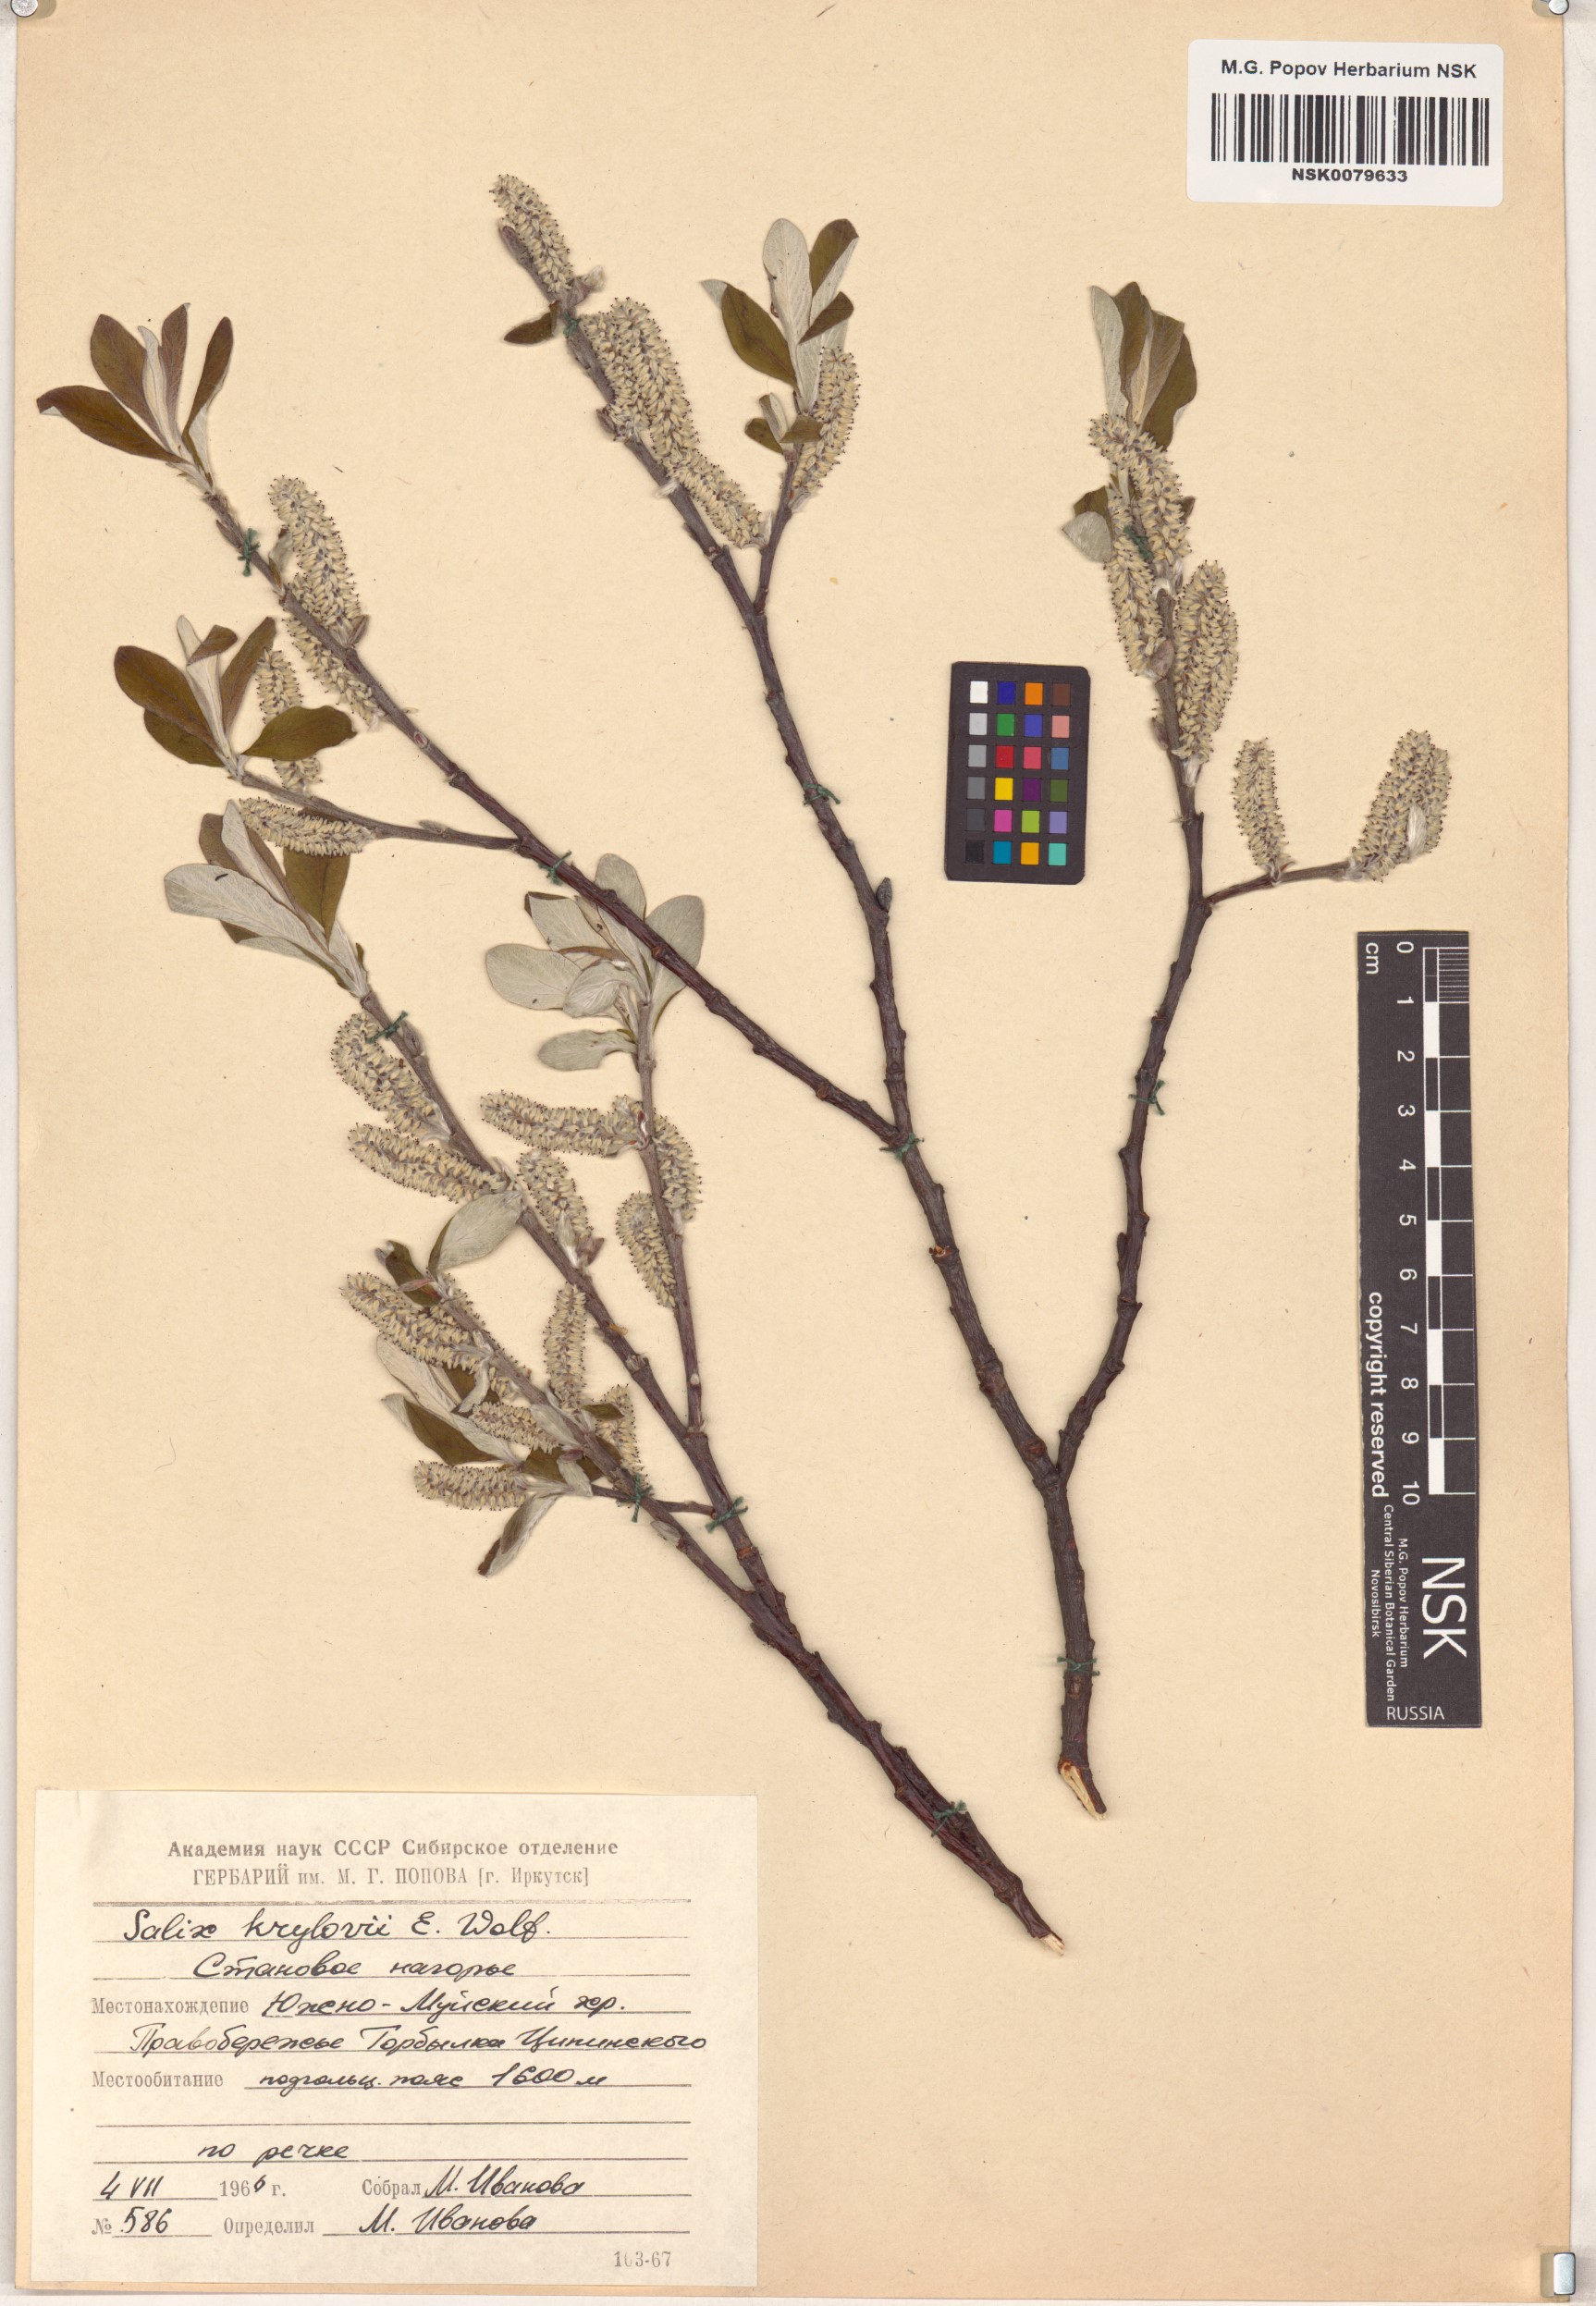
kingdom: Plantae
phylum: Tracheophyta
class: Magnoliopsida
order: Malpighiales
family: Salicaceae
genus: Salix
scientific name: Salix krylovii
